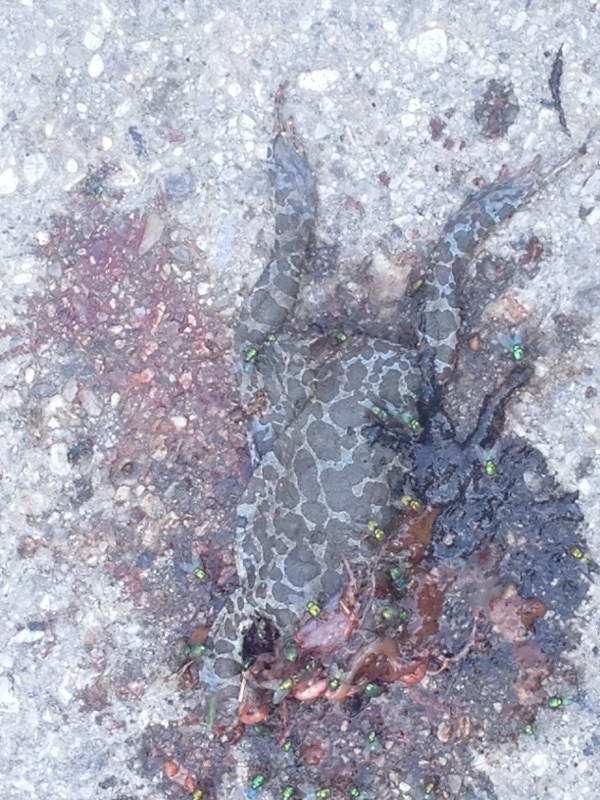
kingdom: Animalia
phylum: Chordata
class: Amphibia
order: Anura
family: Bufonidae
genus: Bufotes
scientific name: Bufotes viridis
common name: European green toad
